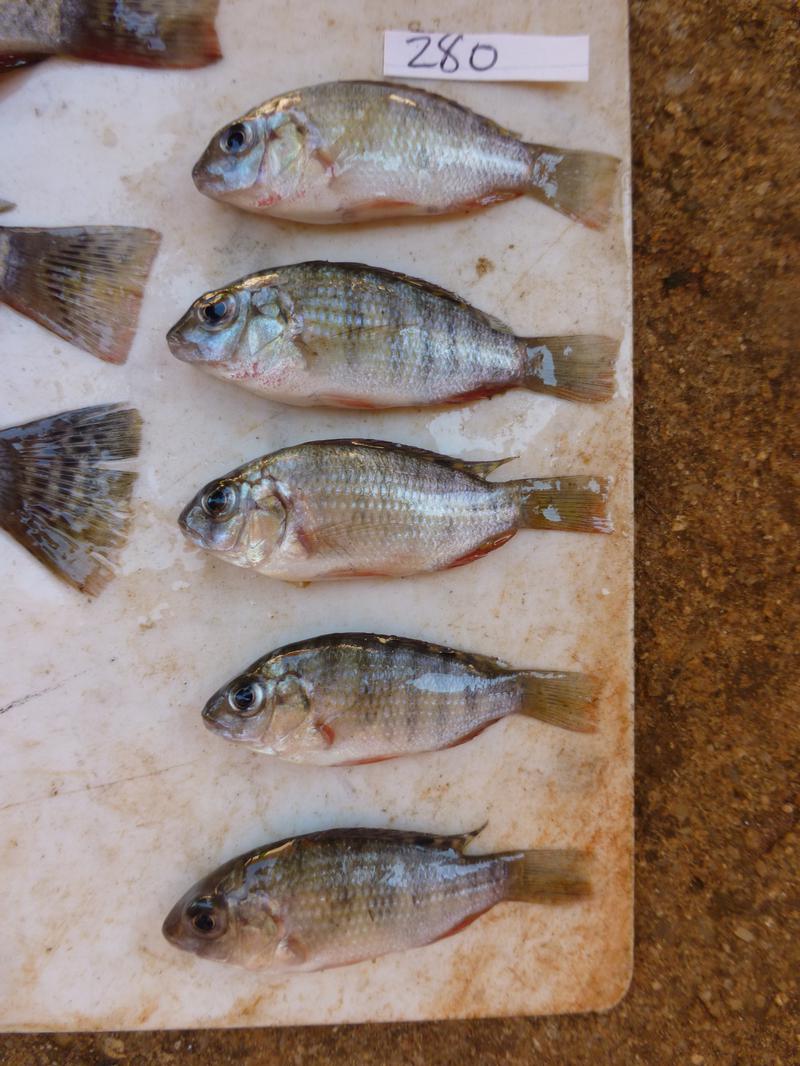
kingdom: Animalia
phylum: Chordata
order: Perciformes
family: Cichlidae
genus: Coptodon
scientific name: Coptodon rendalli
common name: Redbreast tilapia
